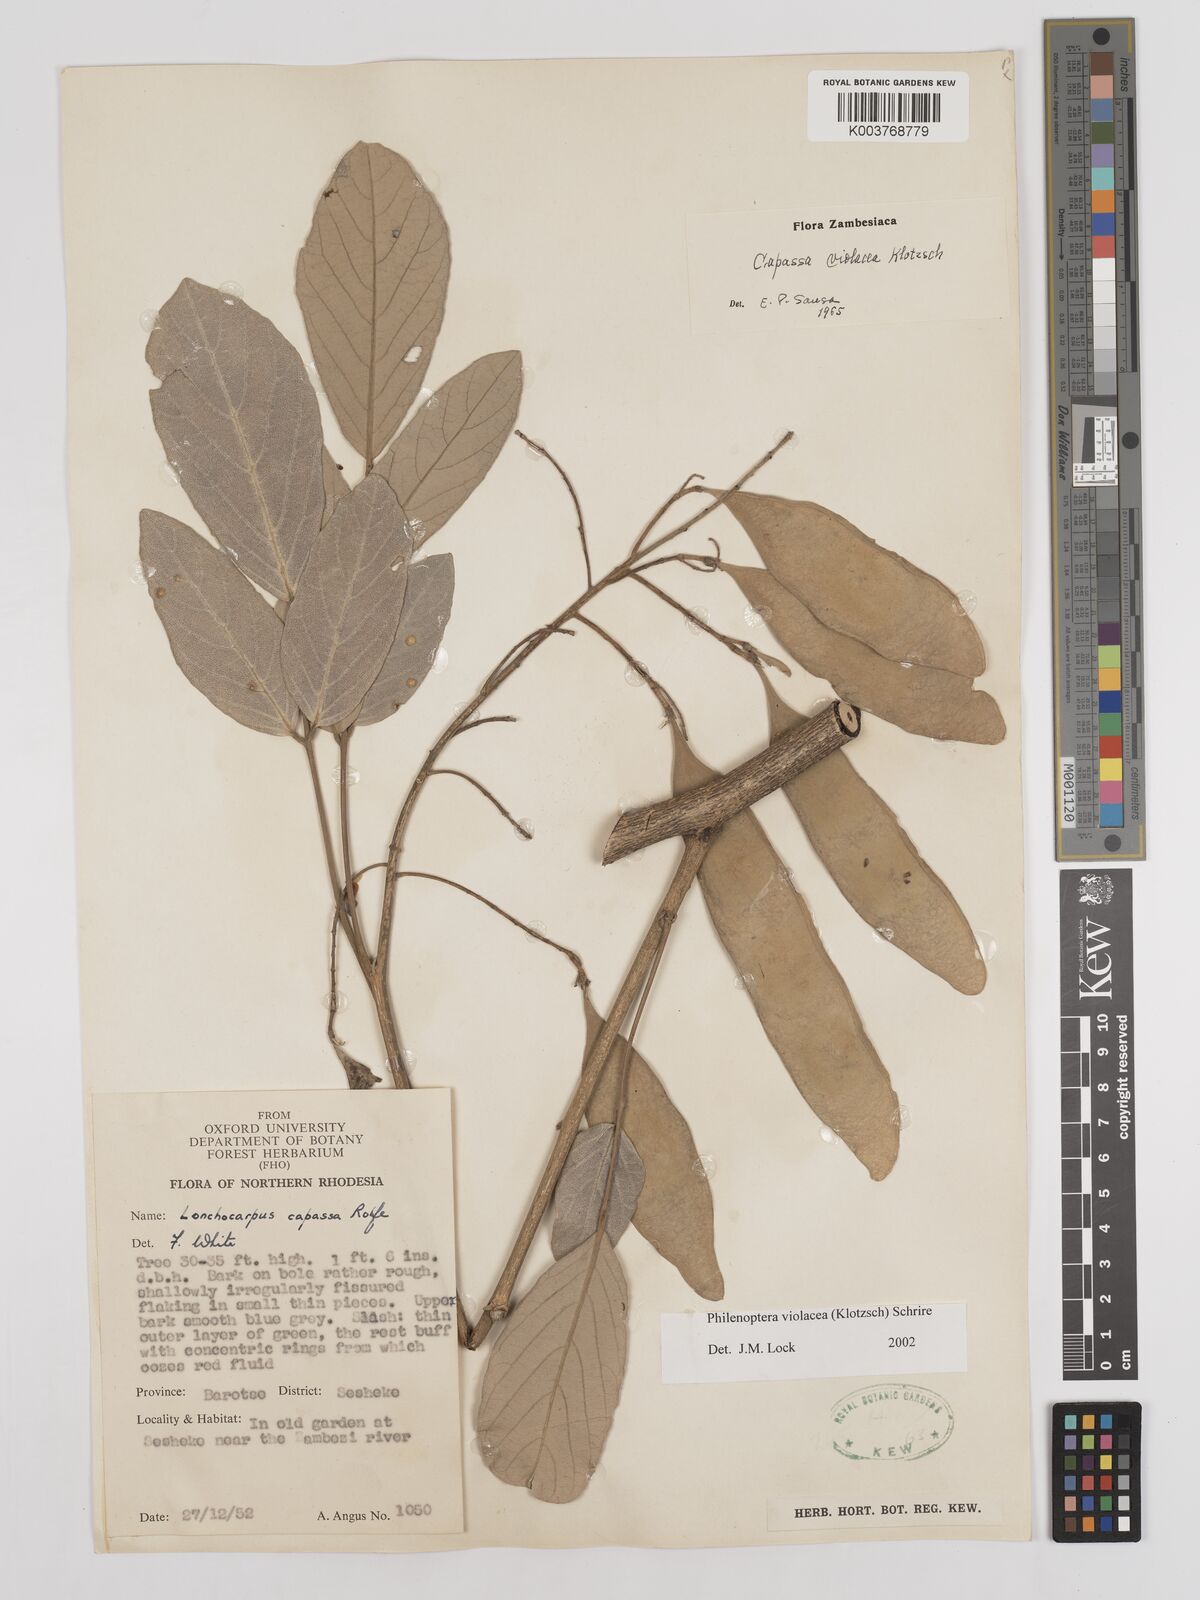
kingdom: Plantae
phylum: Tracheophyta
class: Magnoliopsida
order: Fabales
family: Fabaceae
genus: Philenoptera
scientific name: Philenoptera violacea
